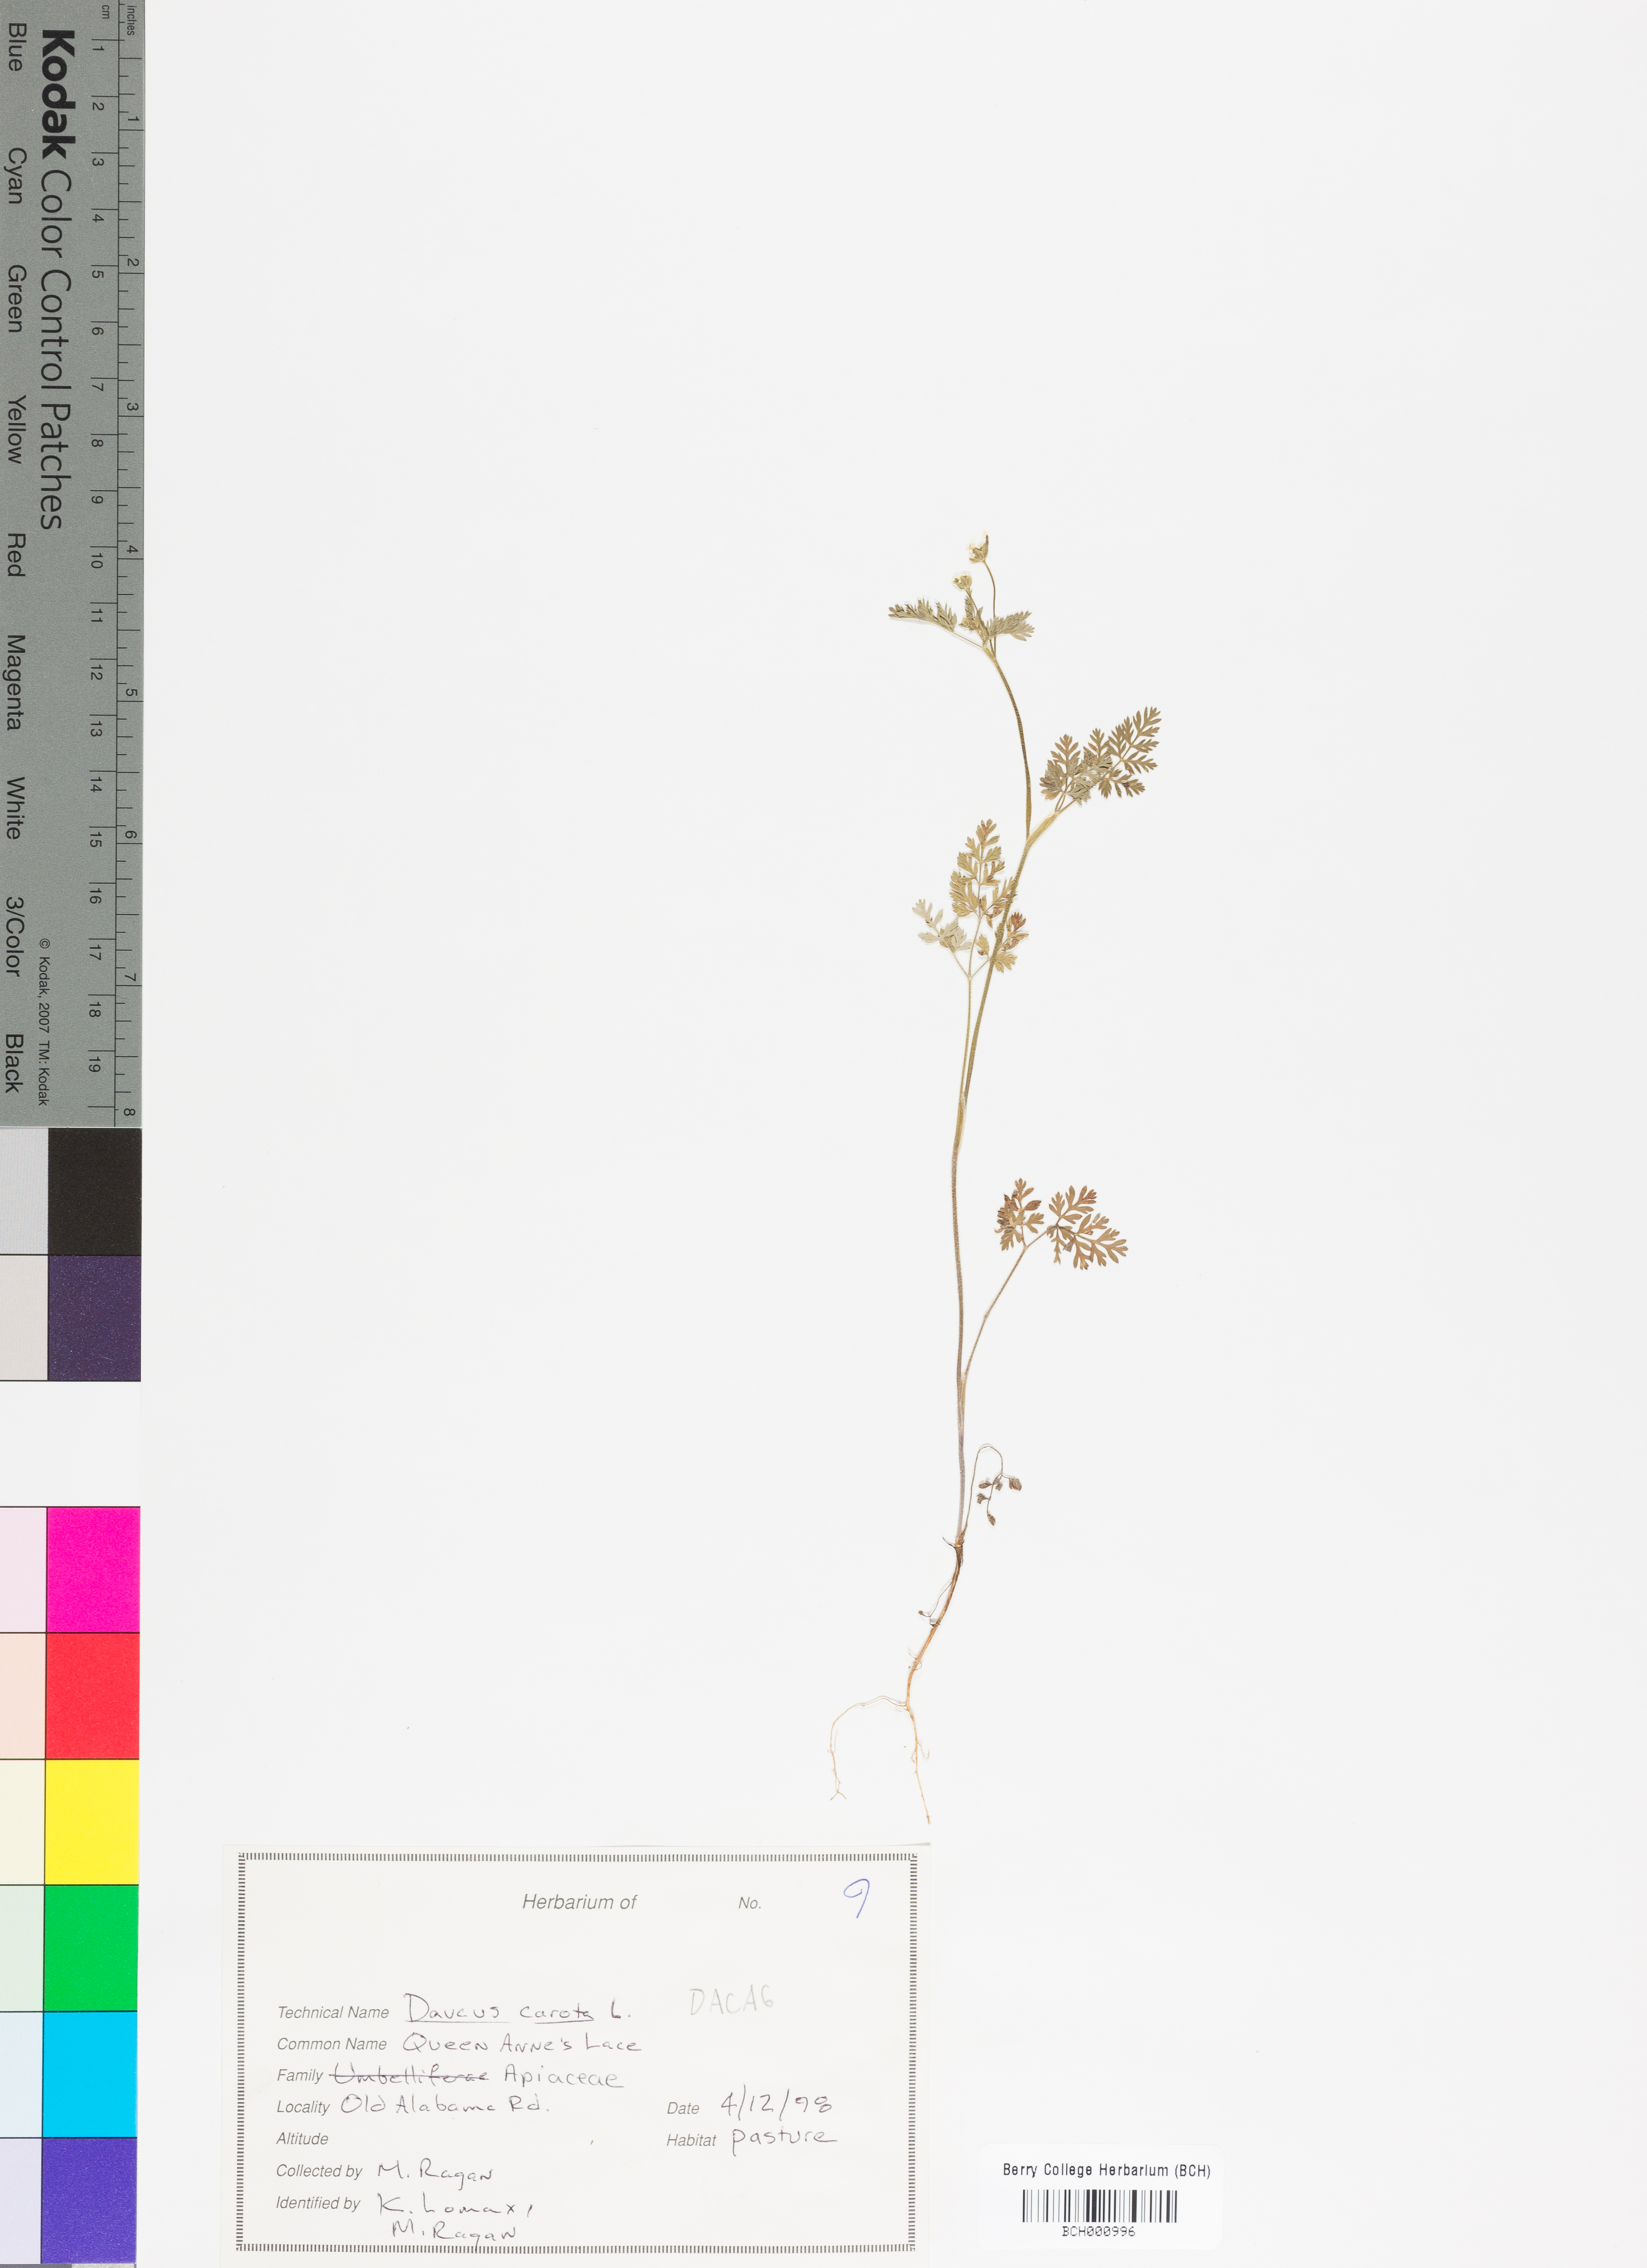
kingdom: Plantae
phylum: Tracheophyta
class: Magnoliopsida
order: Apiales
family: Apiaceae
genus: Daucus
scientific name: Daucus carota
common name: Wild carrot
